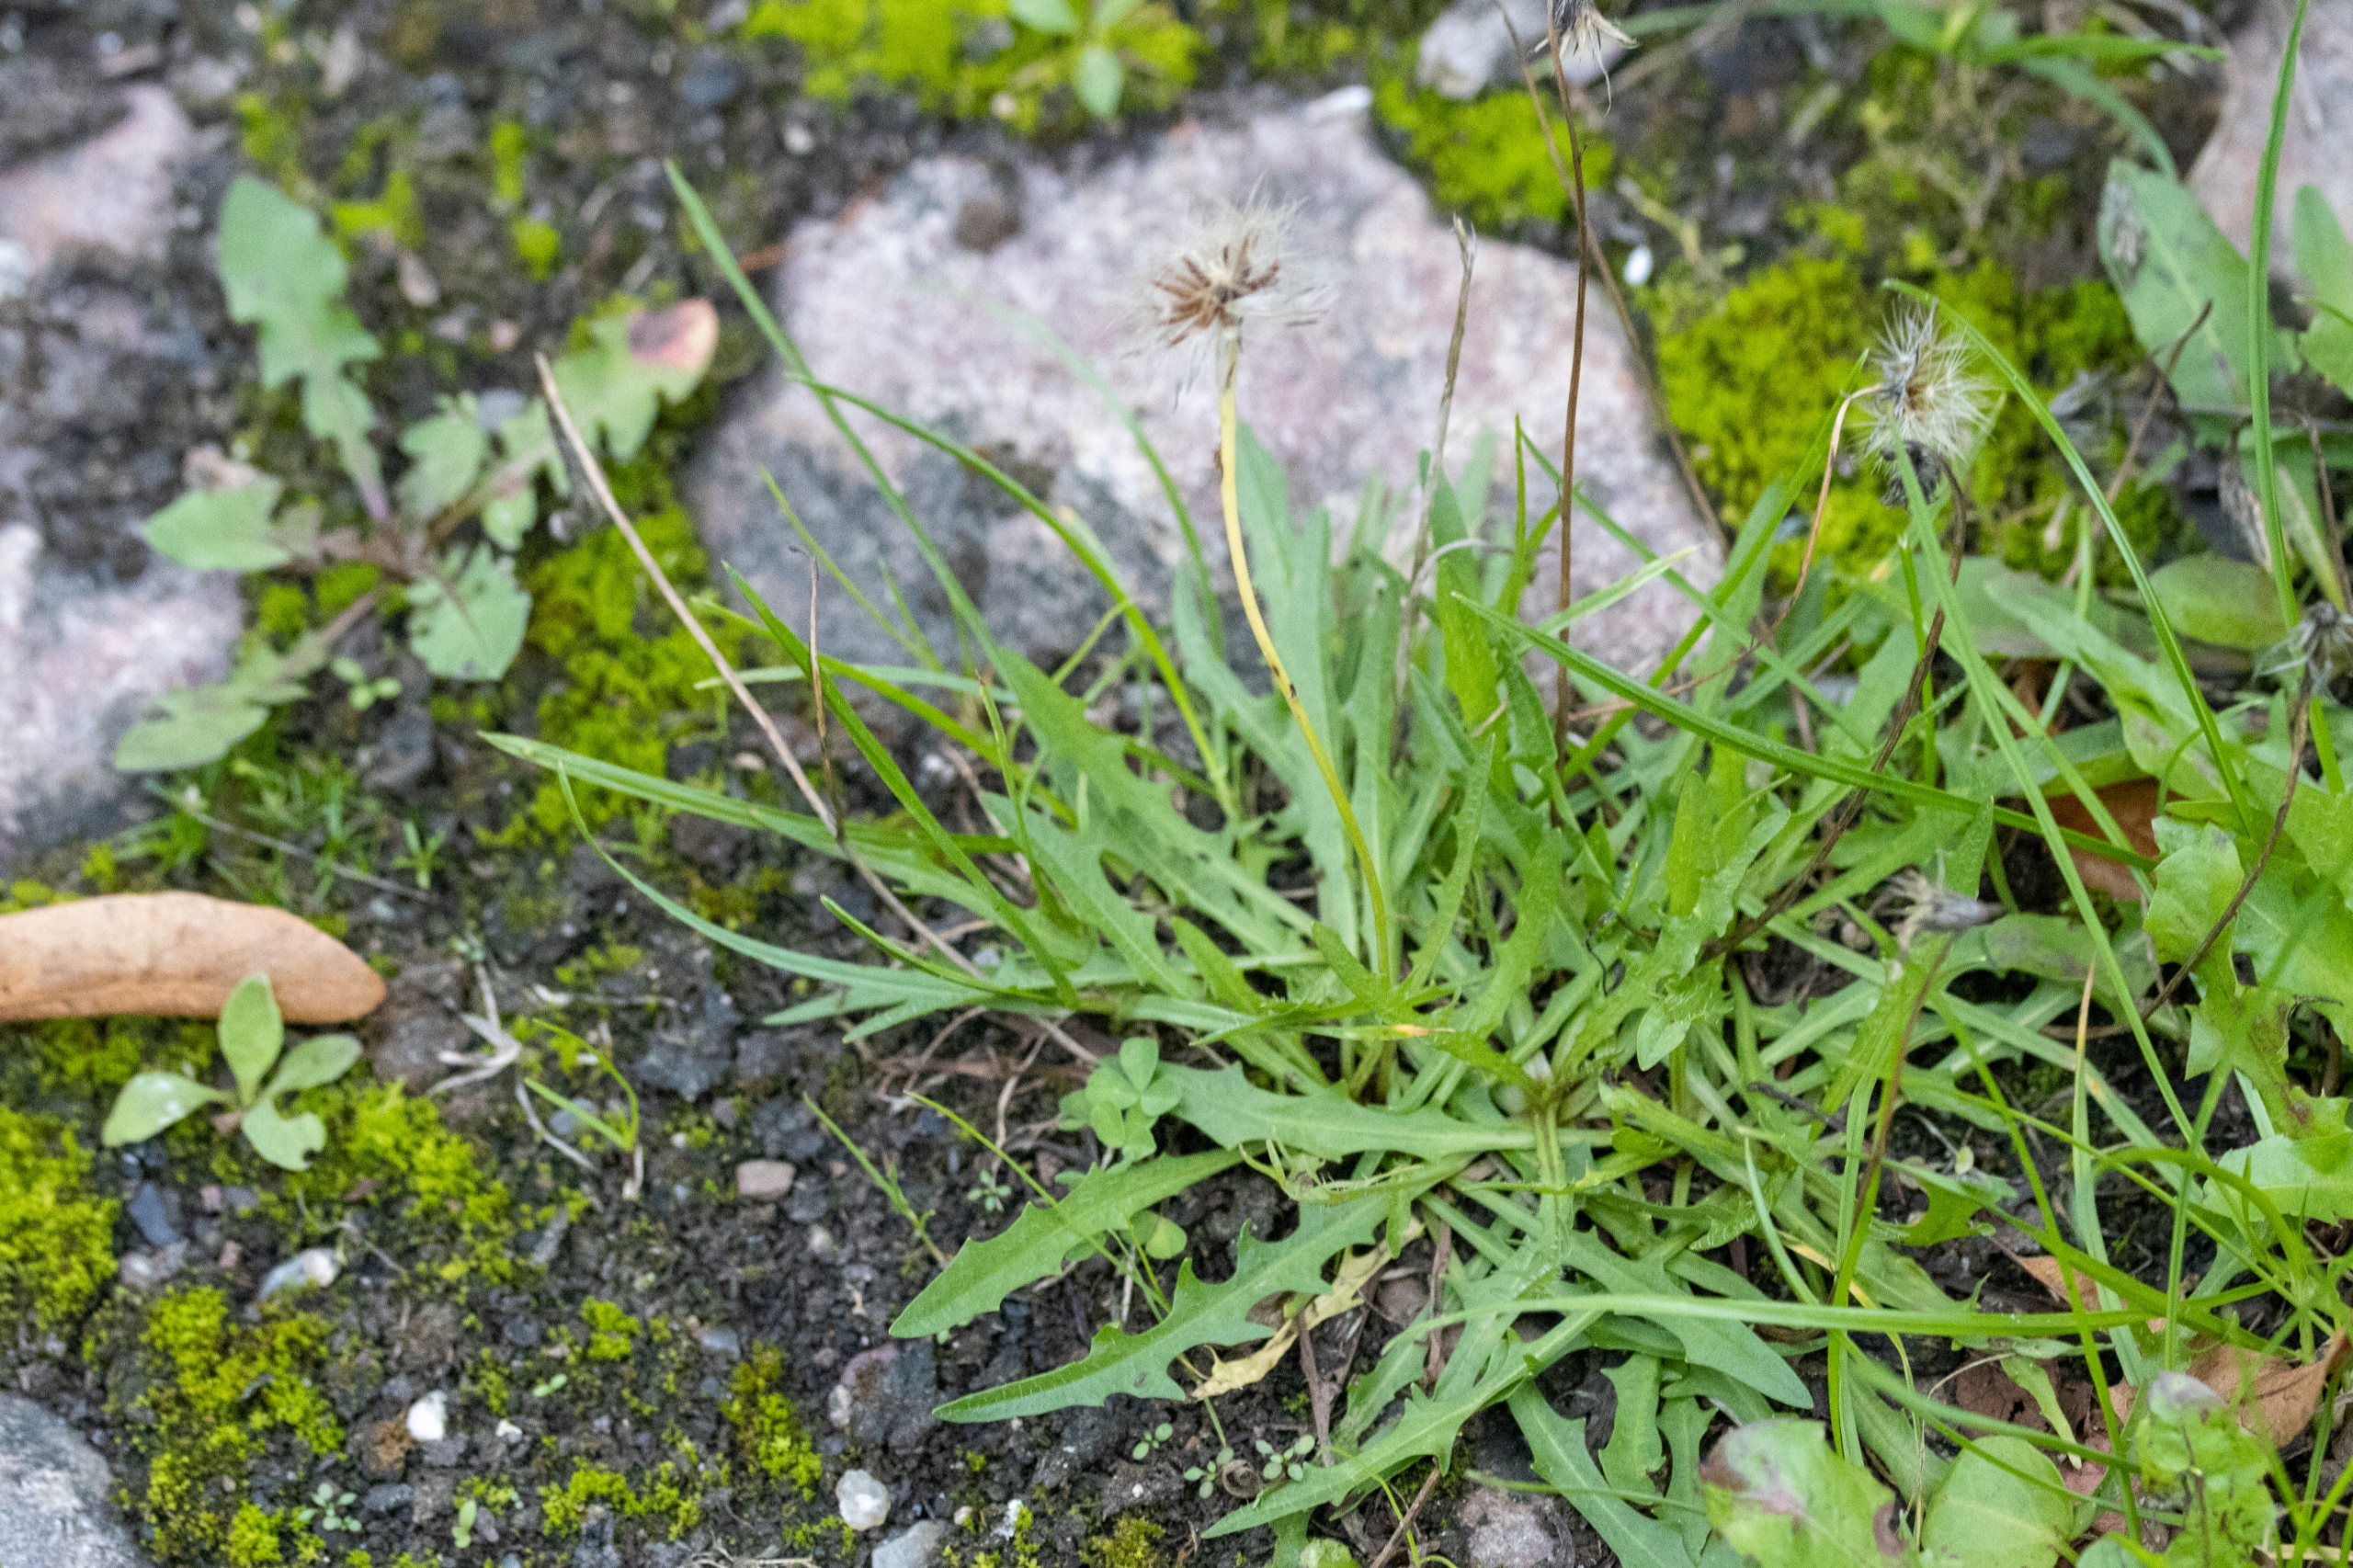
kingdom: Plantae
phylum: Tracheophyta
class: Magnoliopsida
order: Asterales
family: Asteraceae
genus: Scorzoneroides
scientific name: Scorzoneroides autumnalis
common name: Høst-borst
